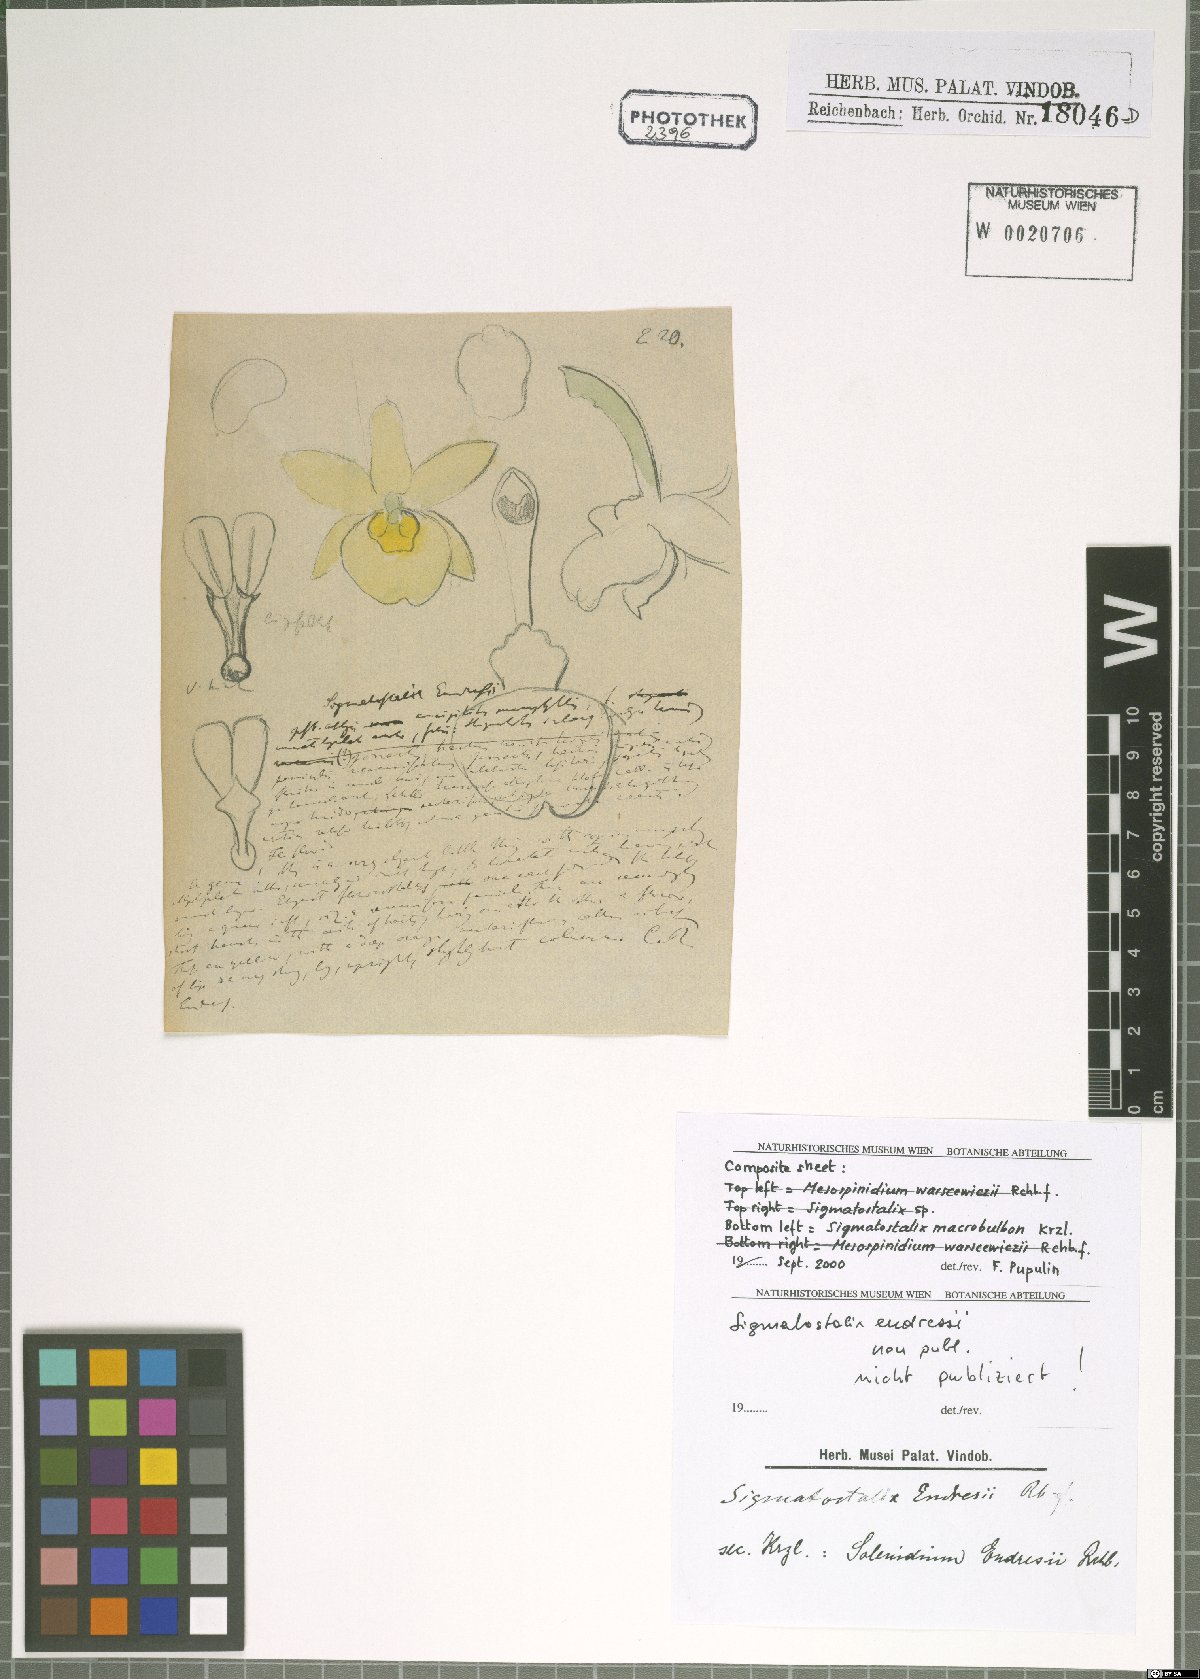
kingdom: Plantae
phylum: Tracheophyta
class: Liliopsida
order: Asparagales
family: Orchidaceae
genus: Oncidium
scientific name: Oncidium macrobulbon
